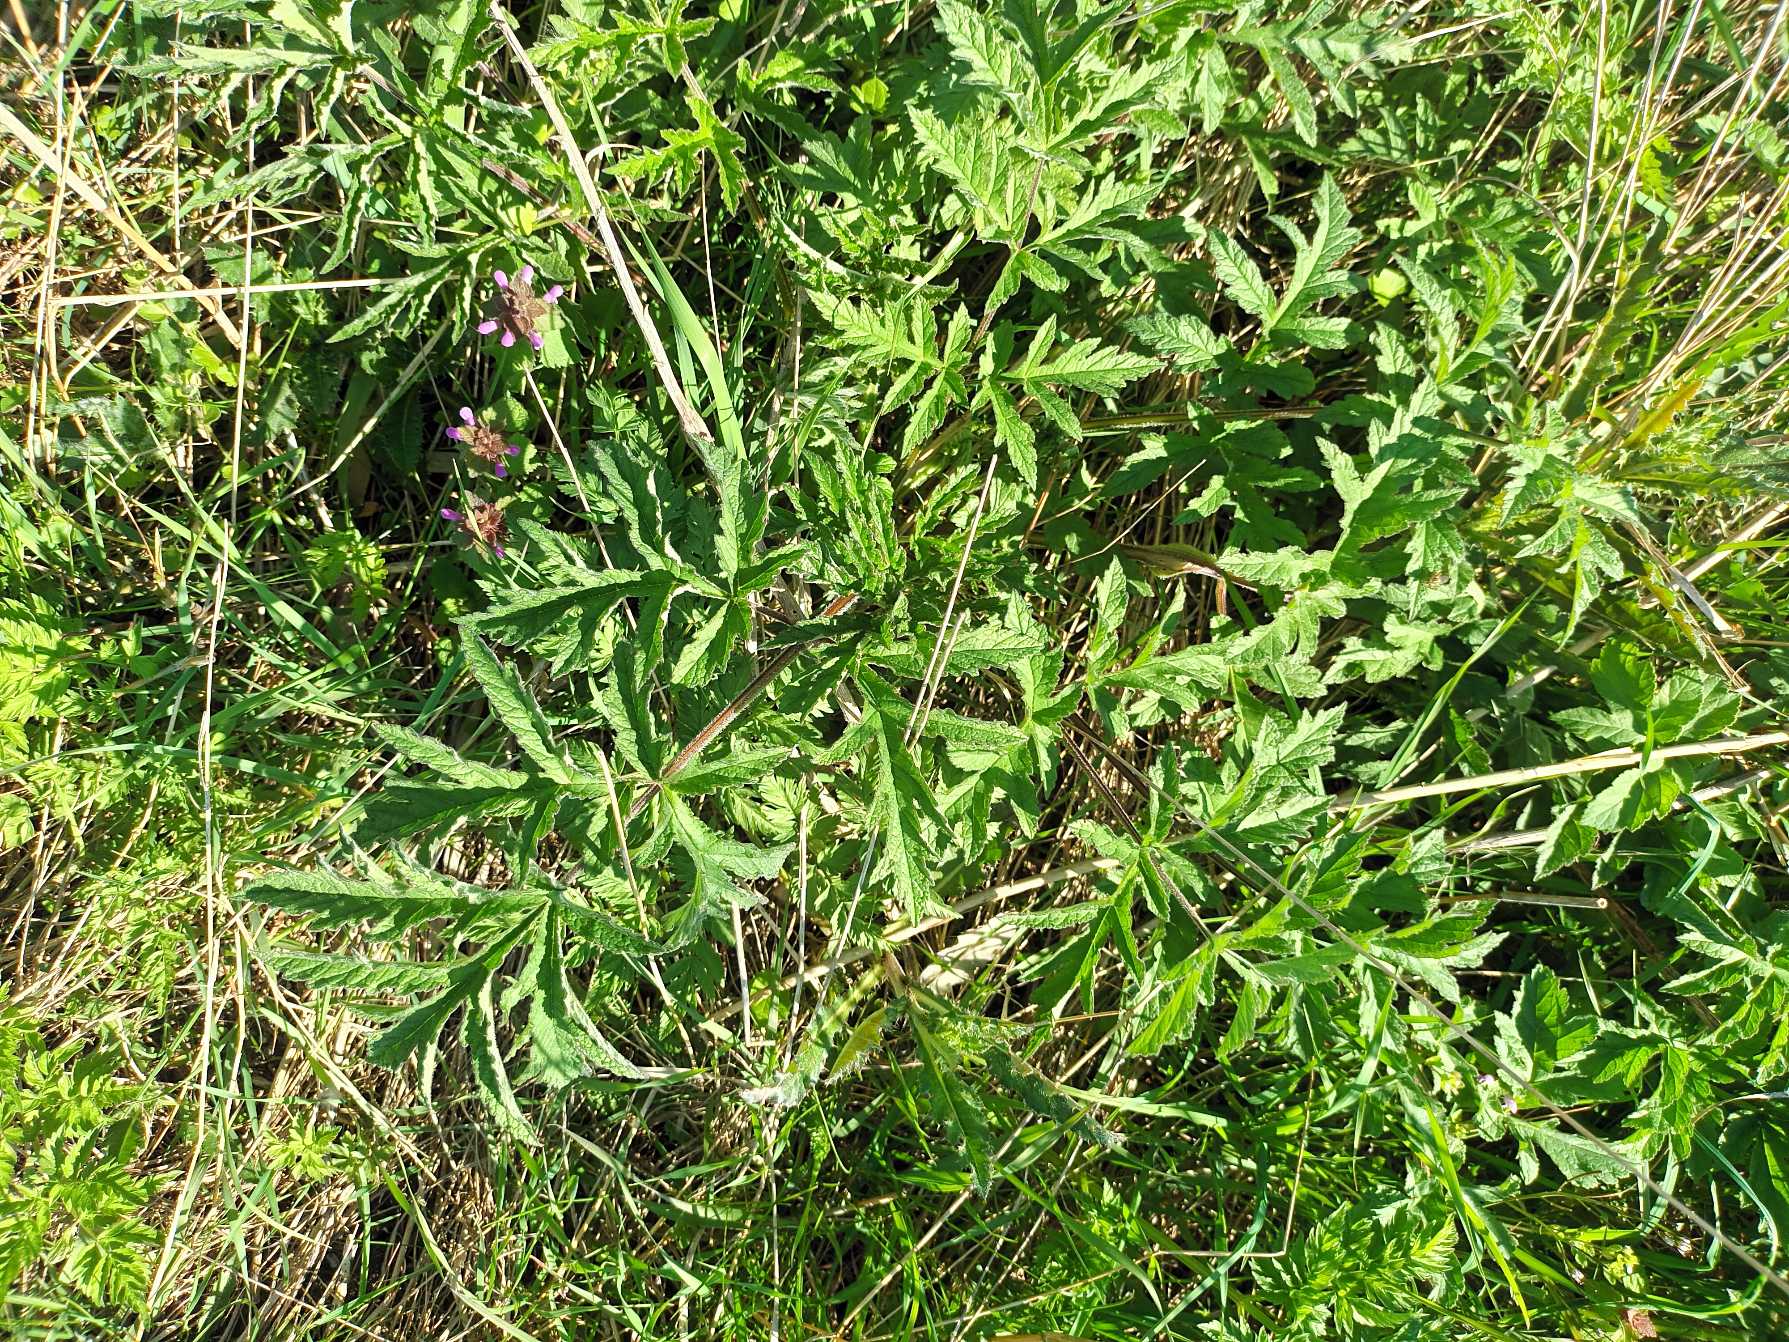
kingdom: Plantae
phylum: Tracheophyta
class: Magnoliopsida
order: Apiales
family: Apiaceae
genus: Heracleum
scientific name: Heracleum sphondylium
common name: Almindelig bjørneklo
